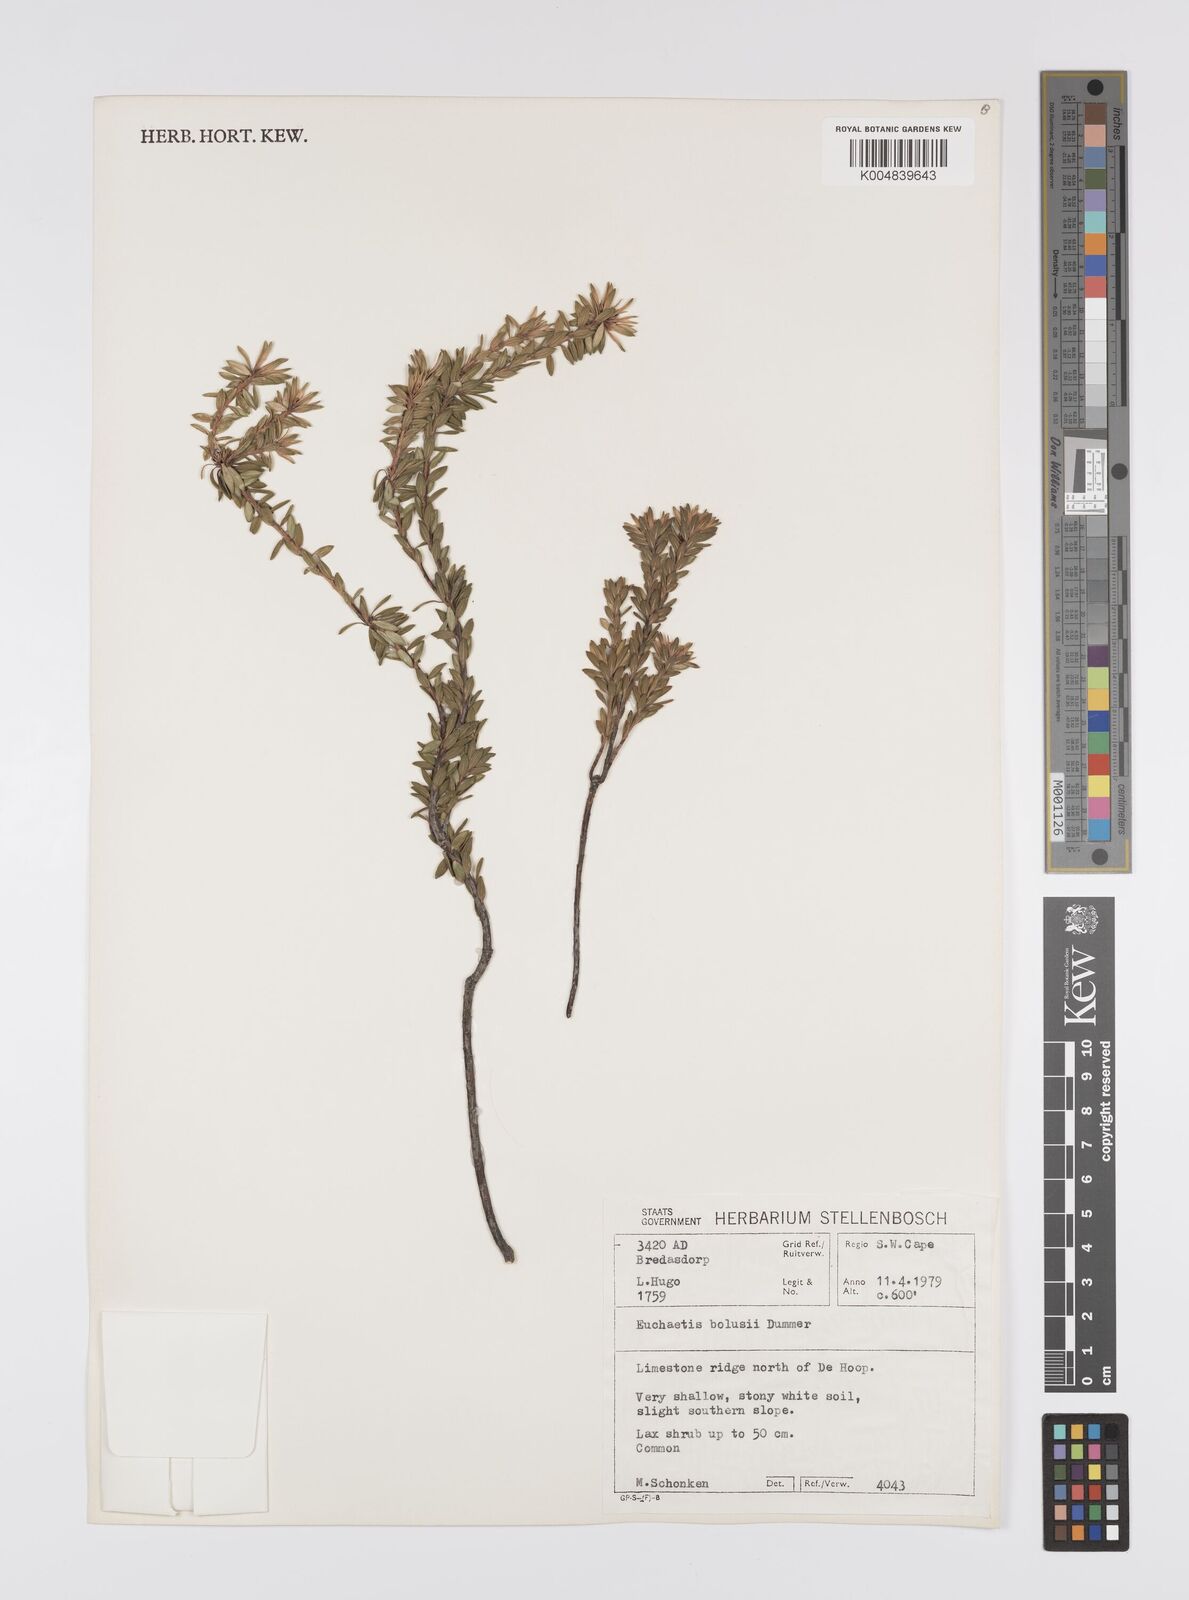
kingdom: Plantae
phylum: Tracheophyta
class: Magnoliopsida
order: Sapindales
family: Rutaceae
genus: Euchaetis
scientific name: Euchaetis longibracteata
